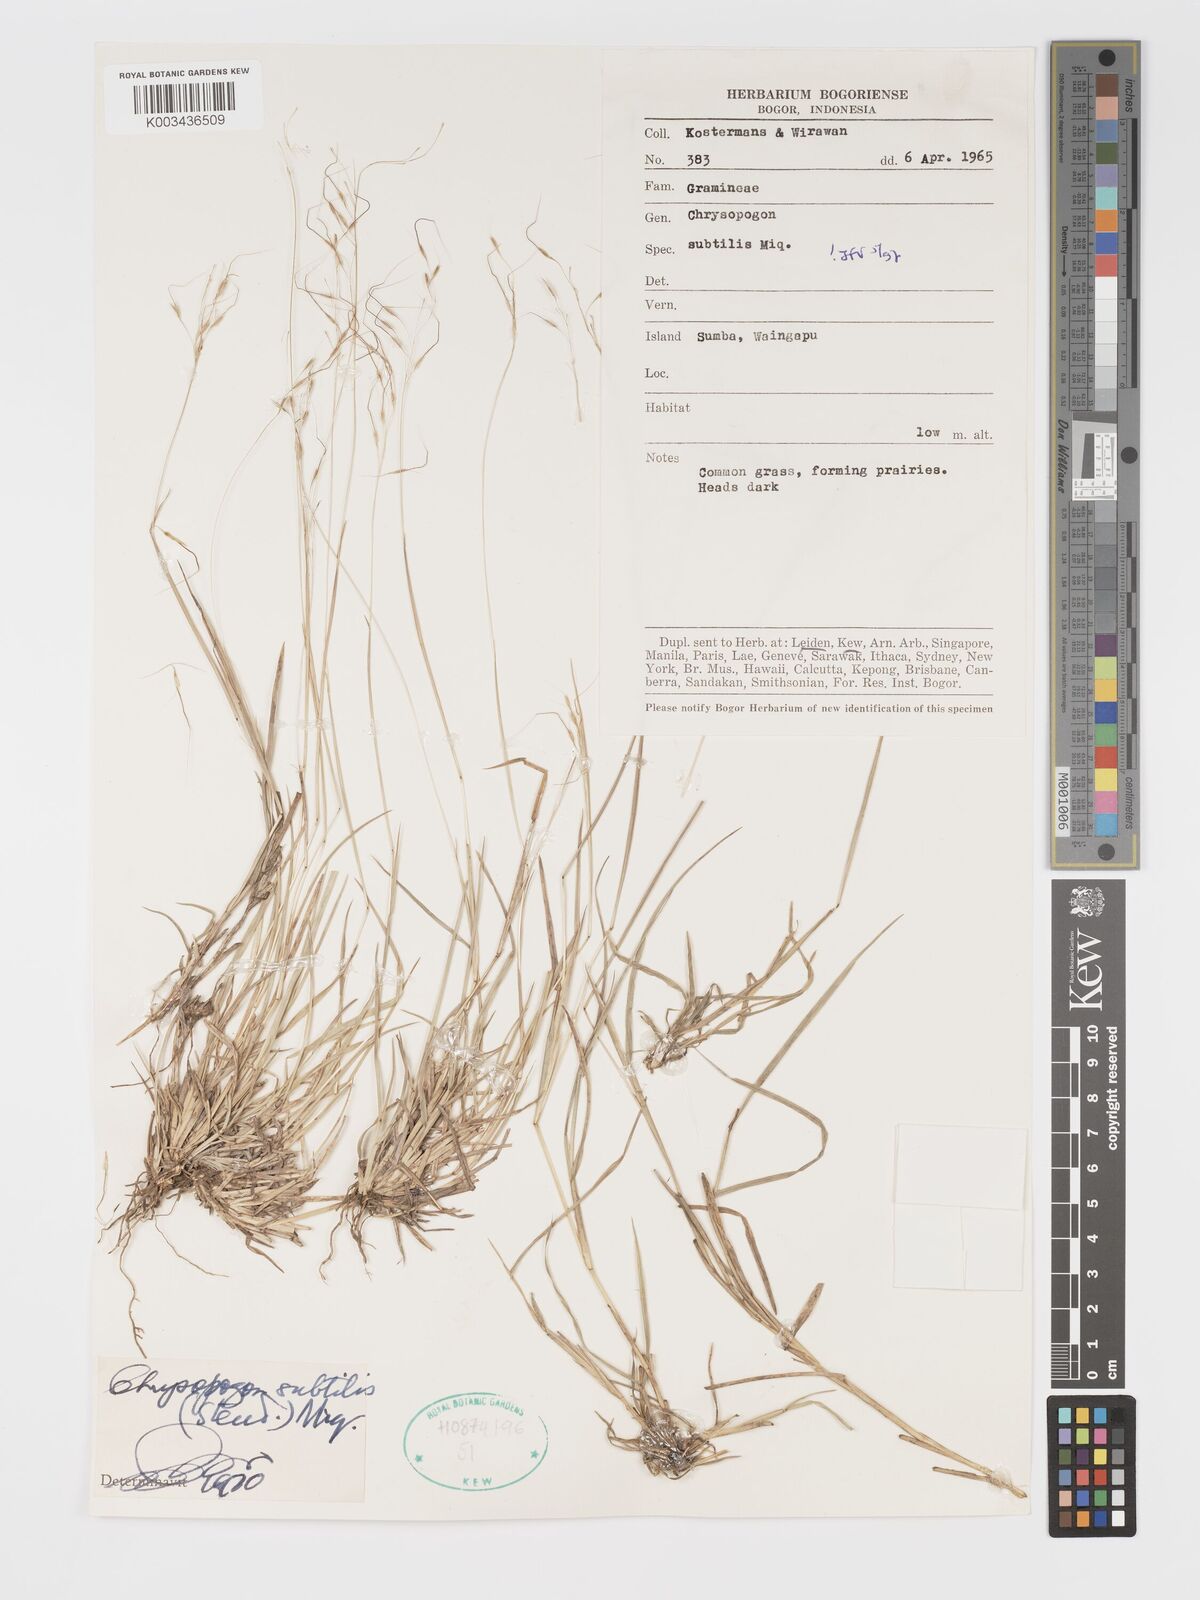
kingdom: Plantae
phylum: Tracheophyta
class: Liliopsida
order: Poales
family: Poaceae
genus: Chrysopogon
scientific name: Chrysopogon subtilis
